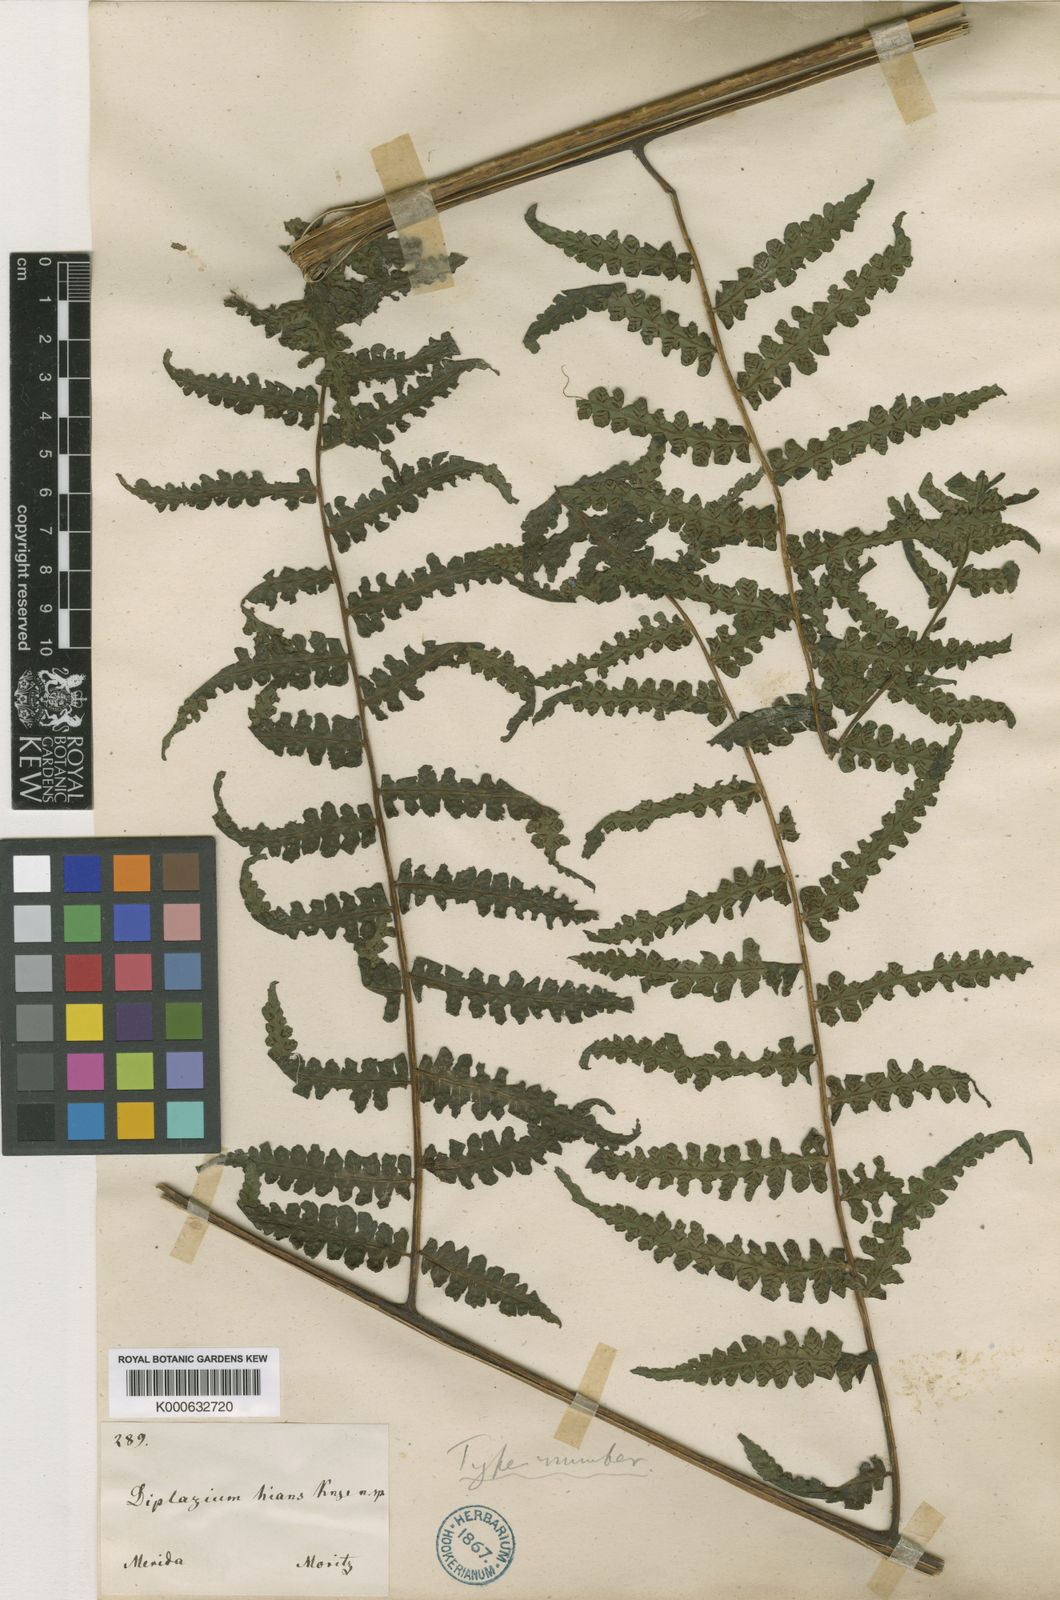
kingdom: Plantae
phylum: Tracheophyta
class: Polypodiopsida
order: Polypodiales
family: Athyriaceae
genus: Diplazium
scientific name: Diplazium
